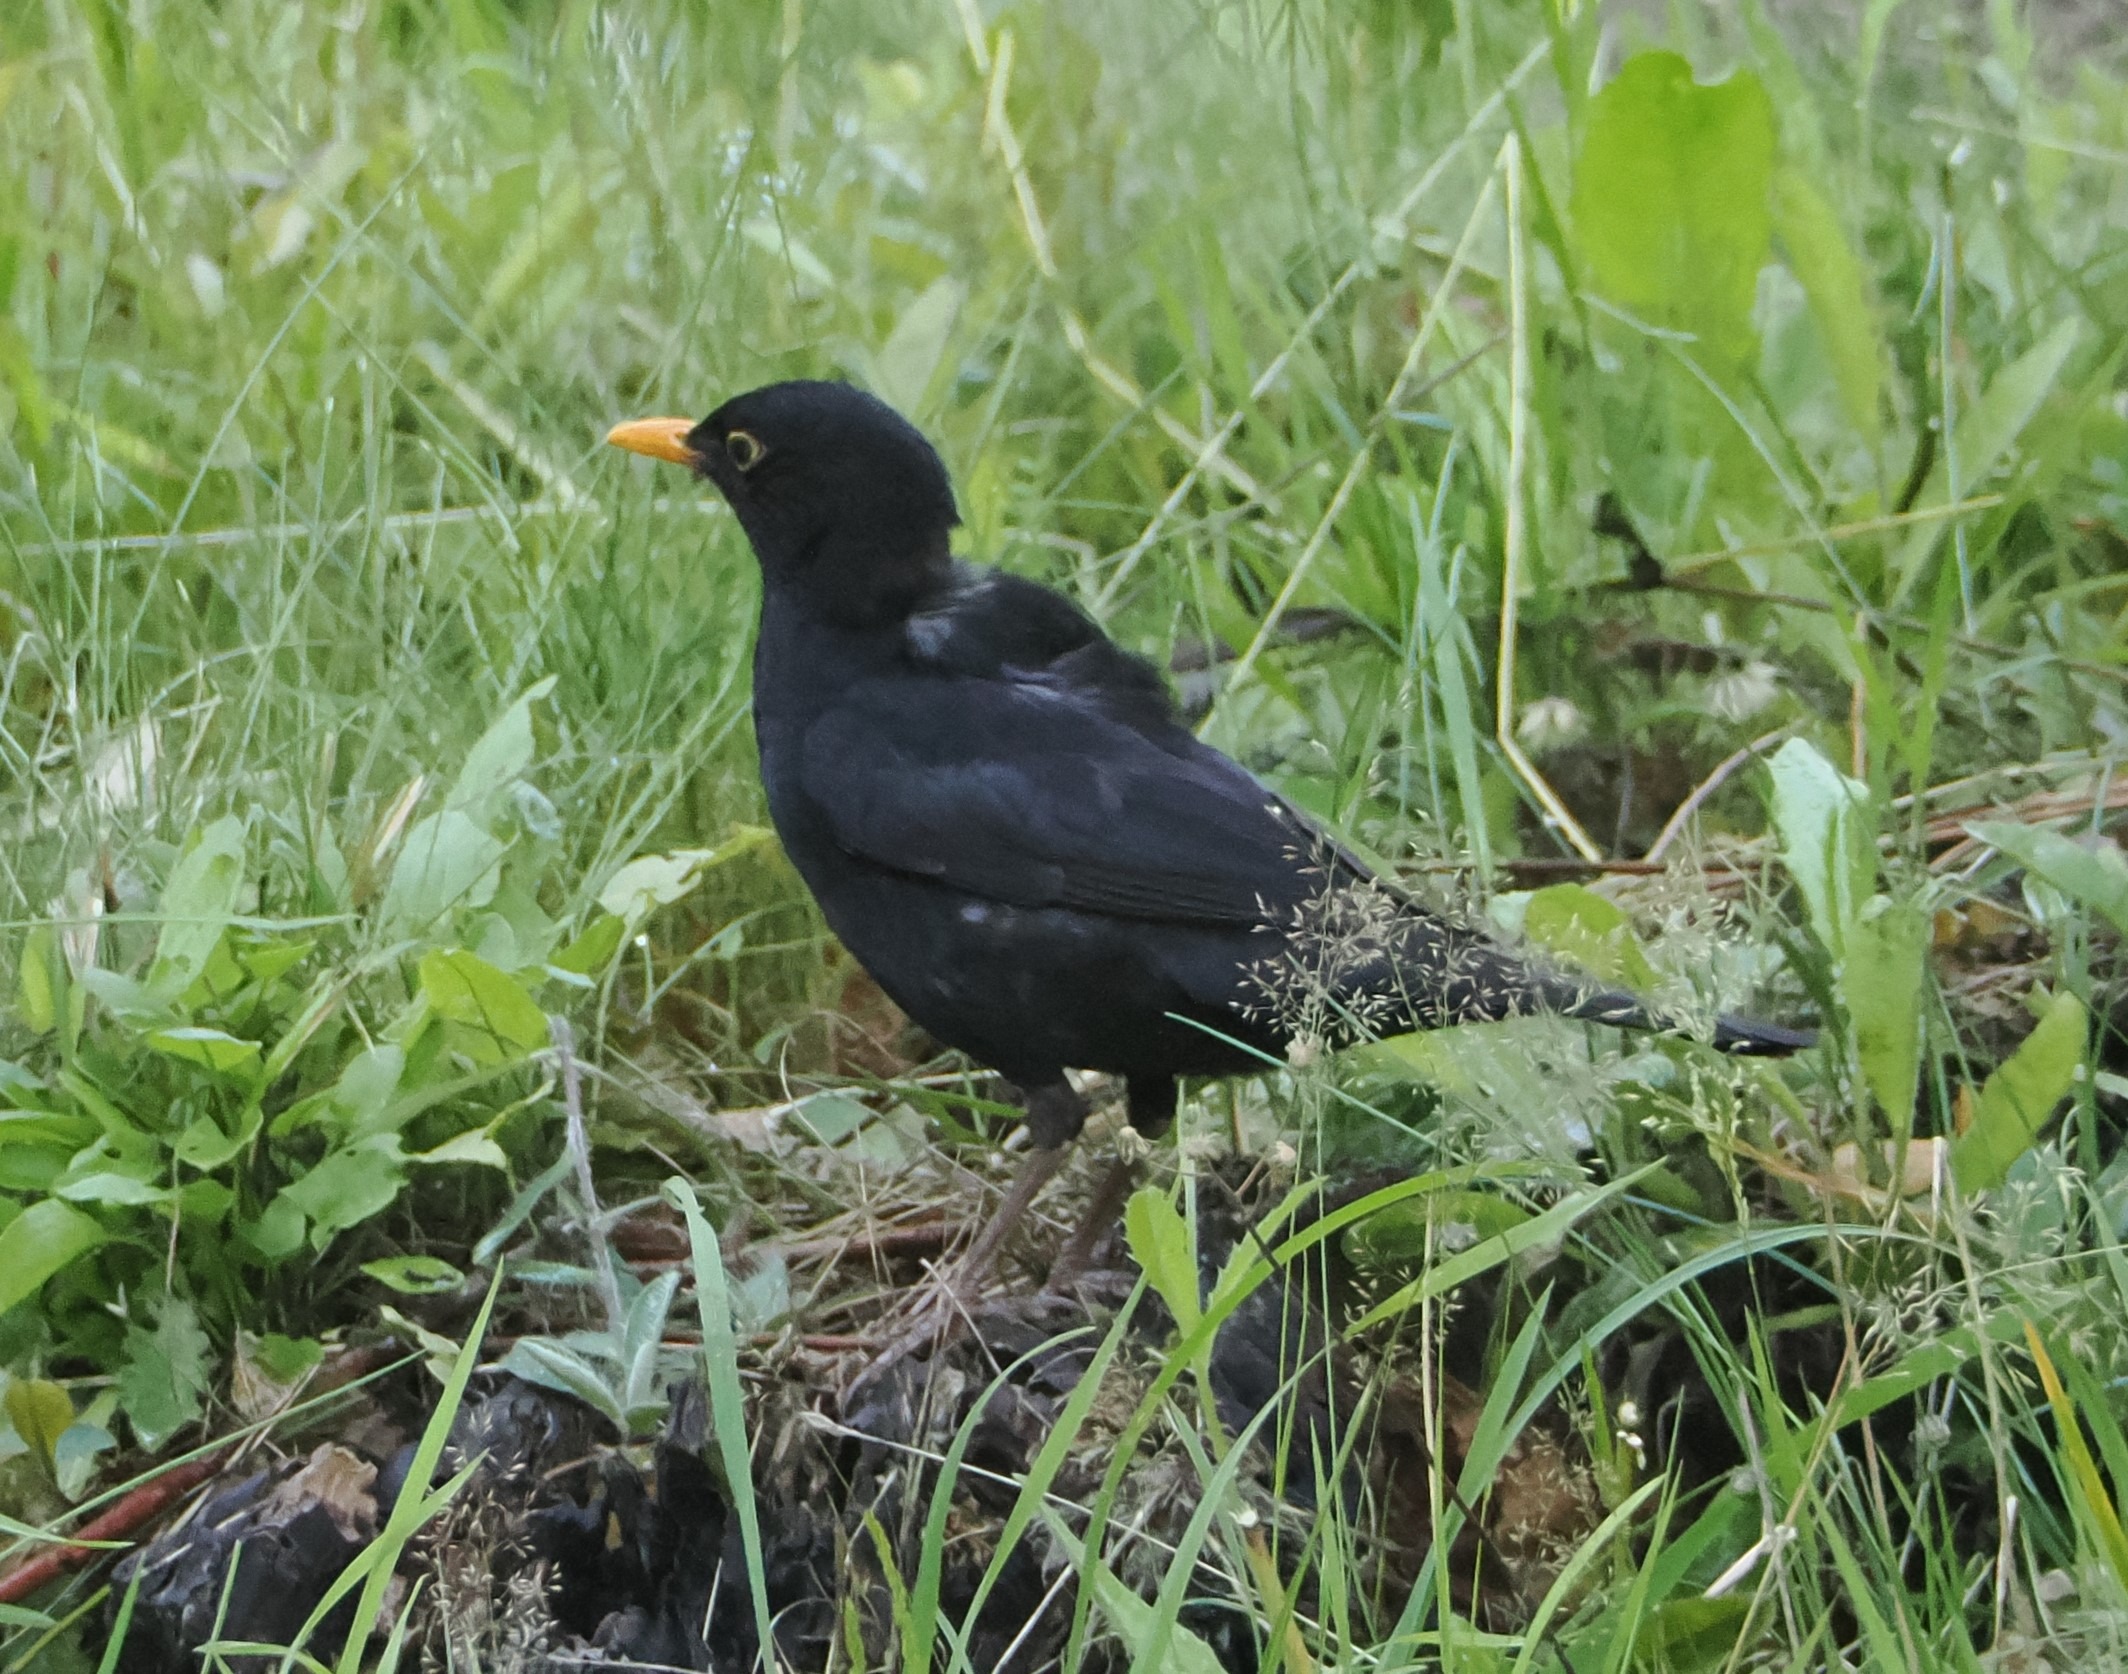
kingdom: Animalia
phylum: Chordata
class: Aves
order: Passeriformes
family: Turdidae
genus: Turdus
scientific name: Turdus merula
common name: Solsort
